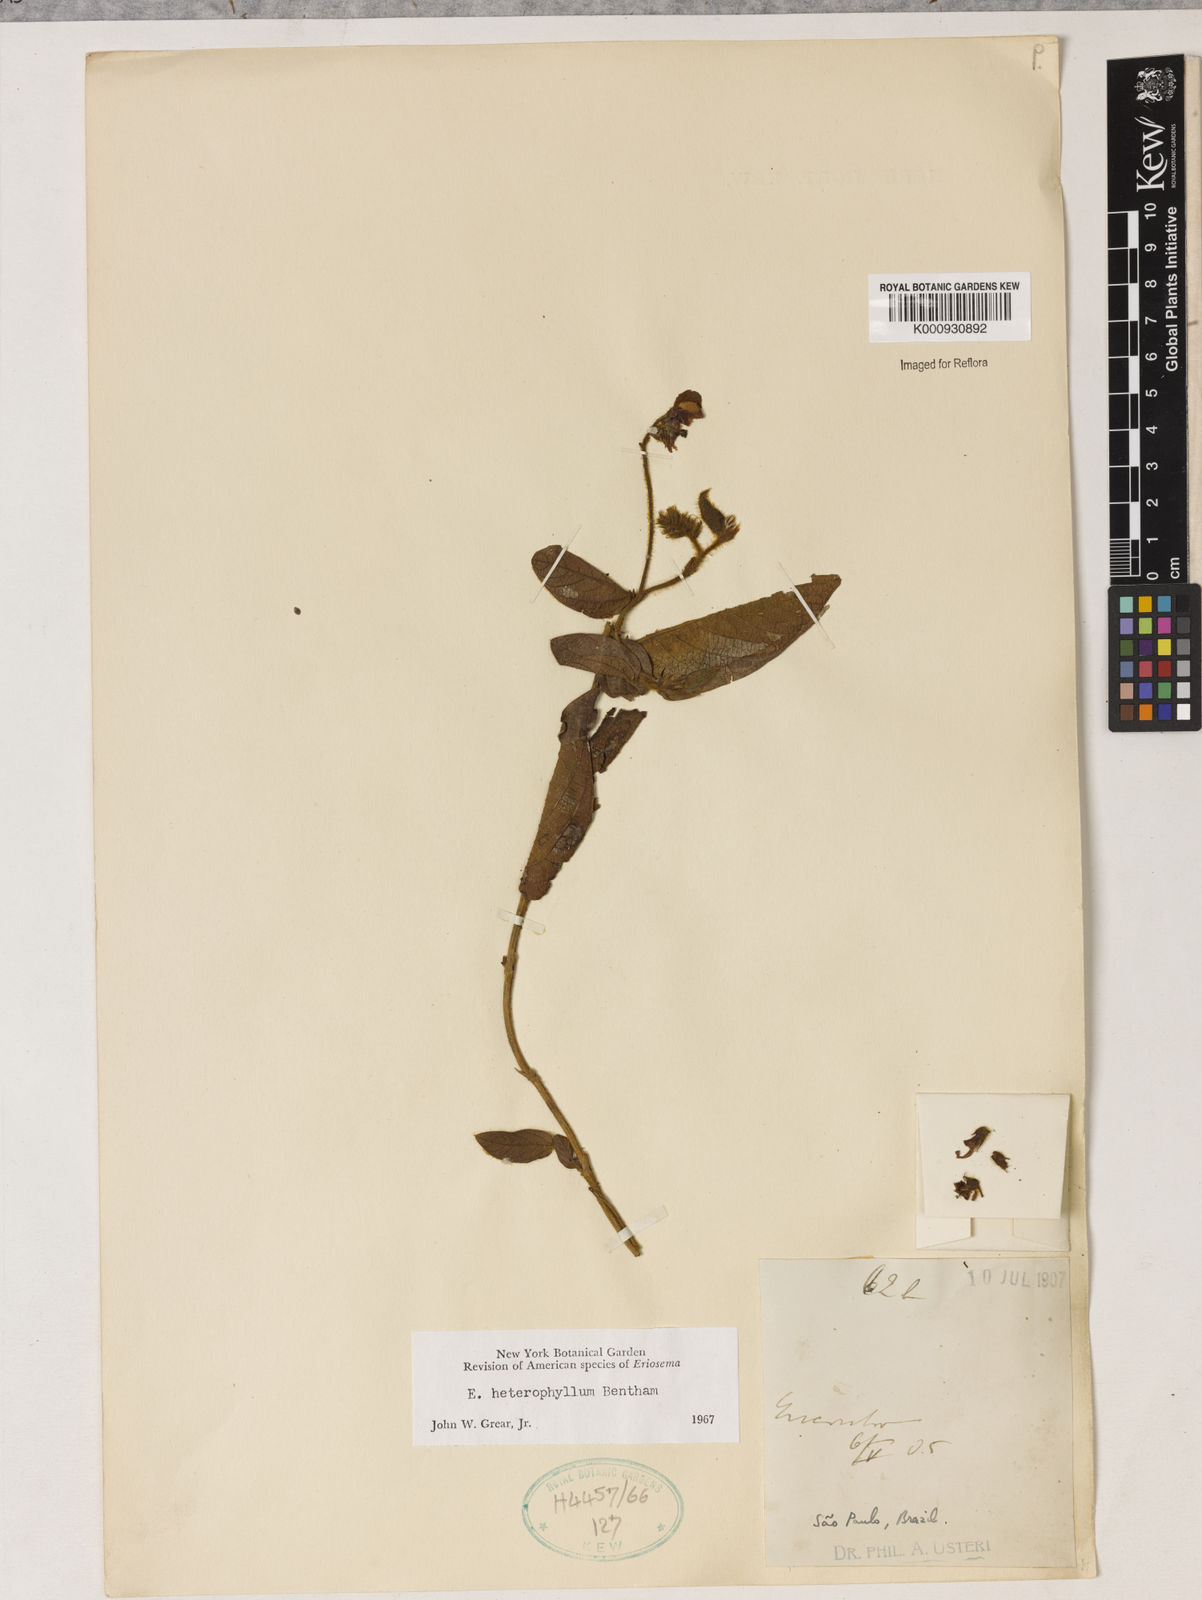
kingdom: Plantae
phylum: Tracheophyta
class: Magnoliopsida
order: Fabales
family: Fabaceae
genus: Eriosema
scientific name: Eriosema heterophyllum
